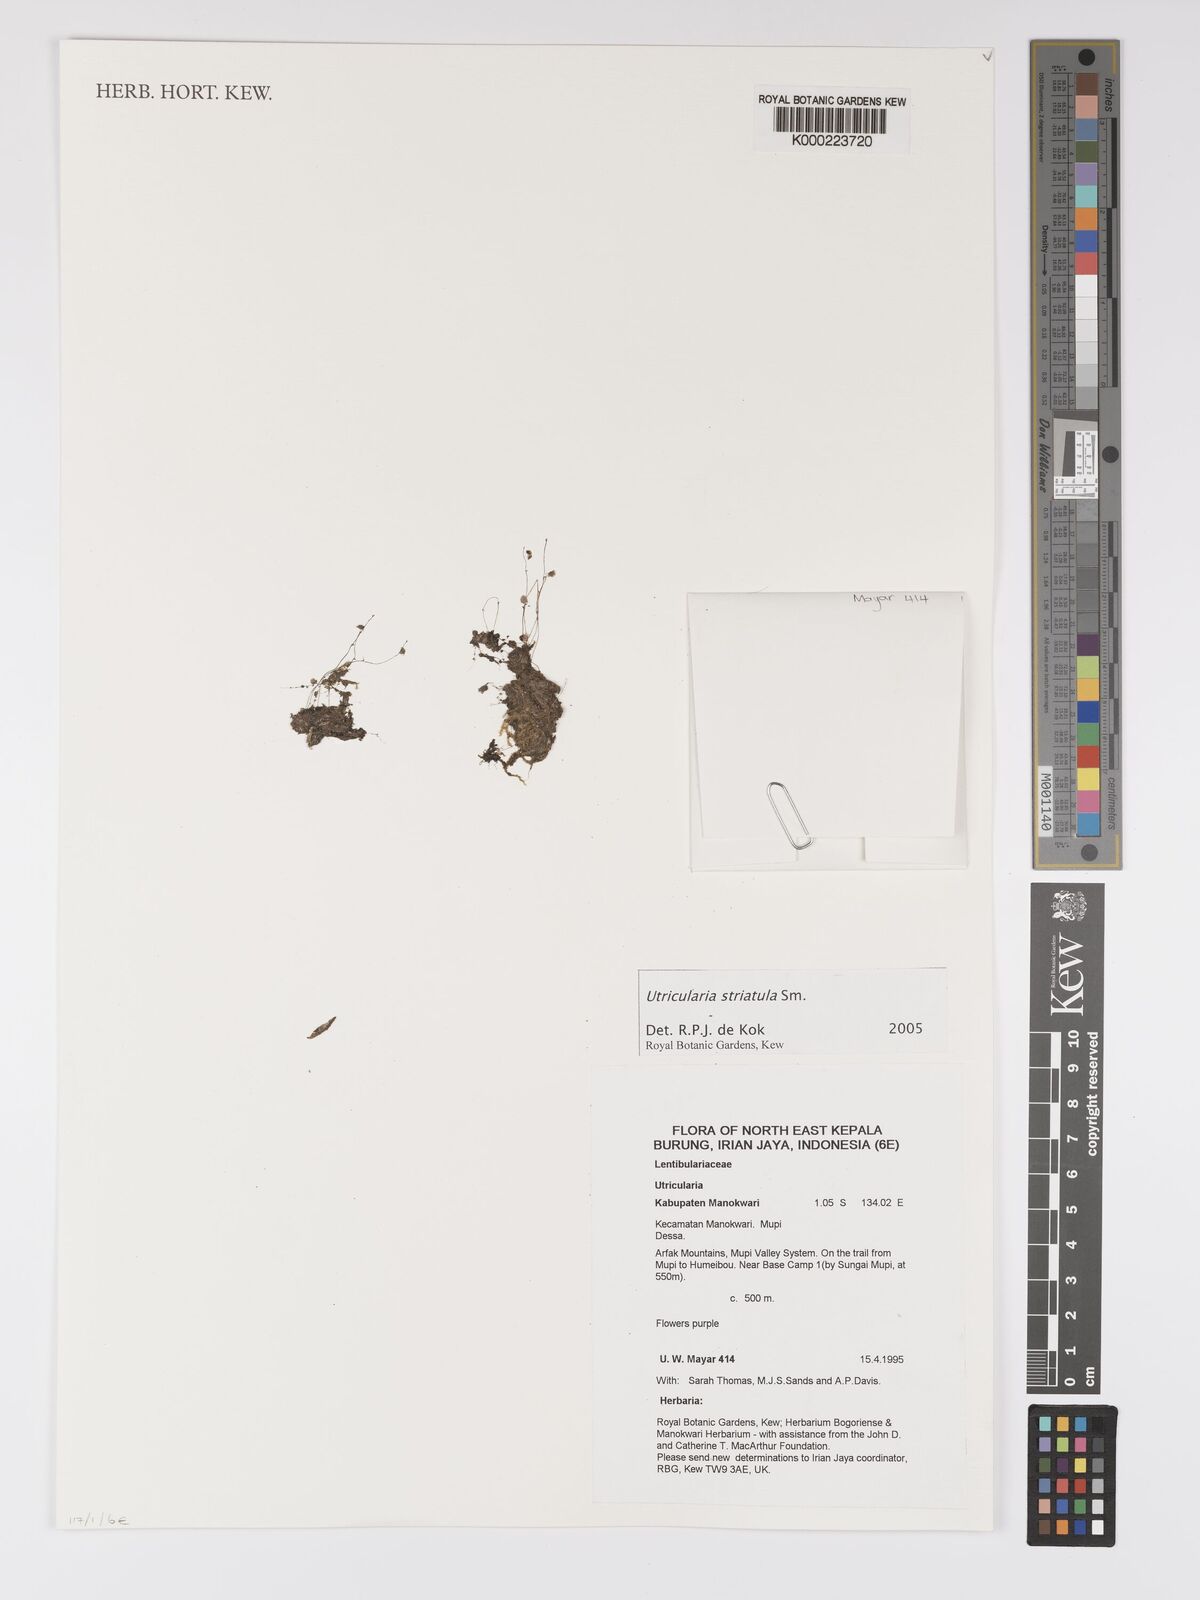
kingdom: Plantae
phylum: Tracheophyta
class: Magnoliopsida
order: Lamiales
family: Lentibulariaceae
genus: Utricularia
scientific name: Utricularia striatula
